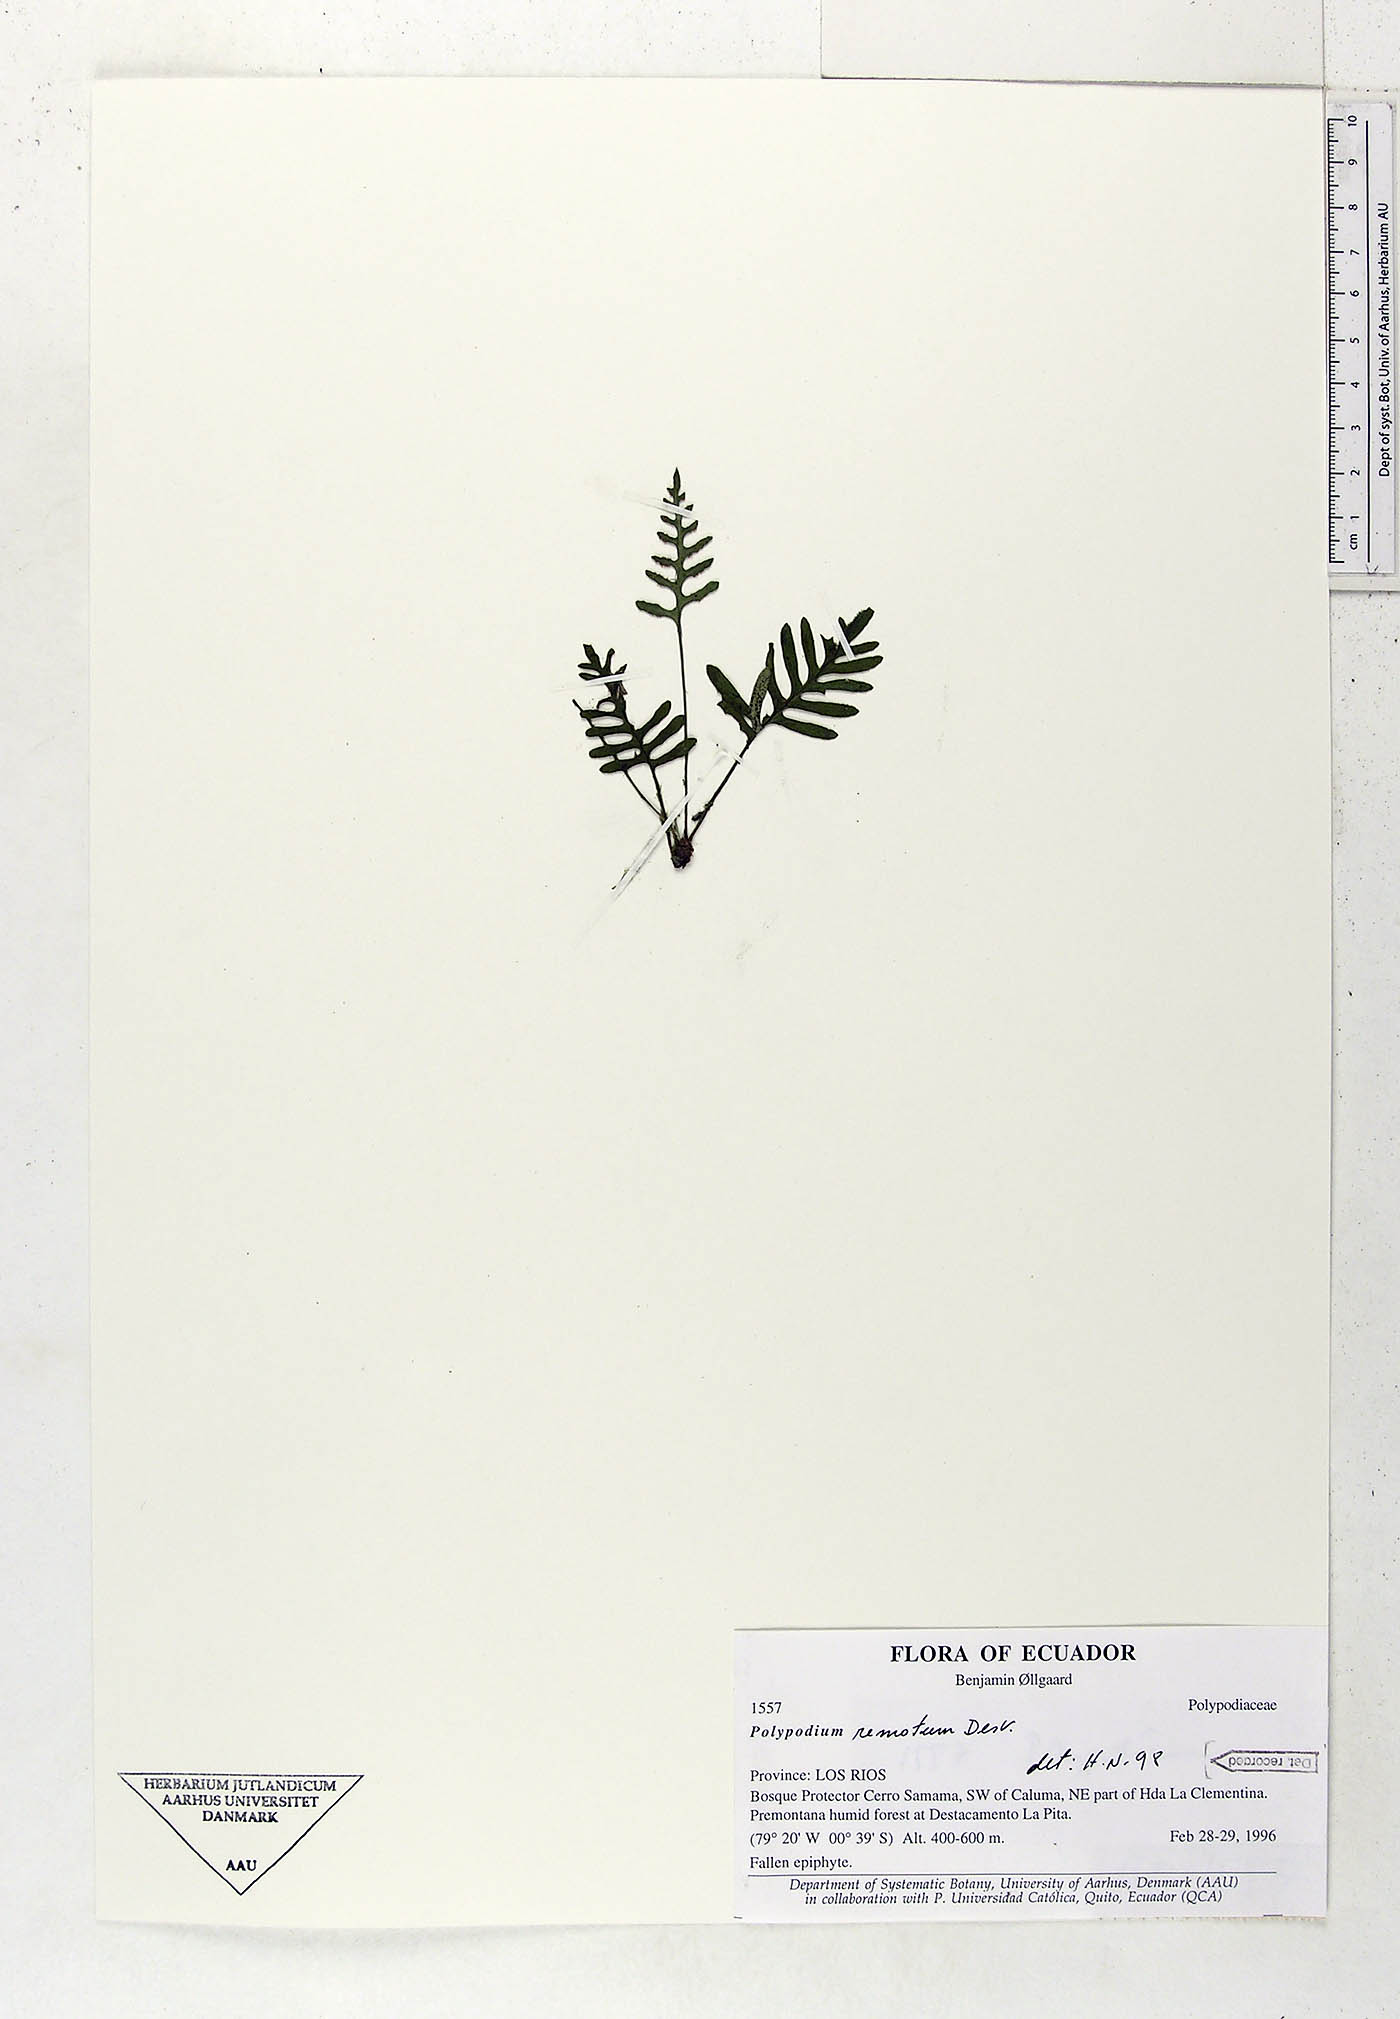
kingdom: Plantae
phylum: Tracheophyta
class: Polypodiopsida
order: Polypodiales
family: Polypodiaceae
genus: Pleopeltis
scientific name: Pleopeltis remota
